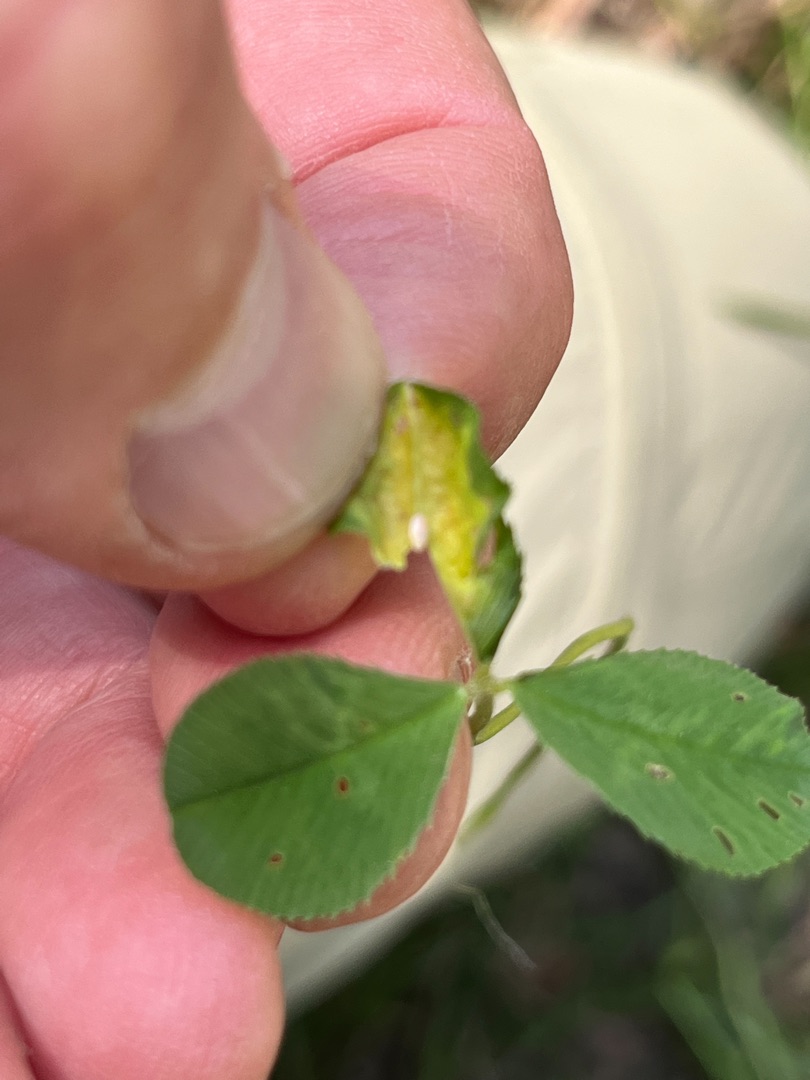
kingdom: Animalia
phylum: Arthropoda
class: Insecta
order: Diptera
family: Cecidomyiidae
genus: Dasineura
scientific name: Dasineura trifolii
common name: Kløverbladgalmyg
